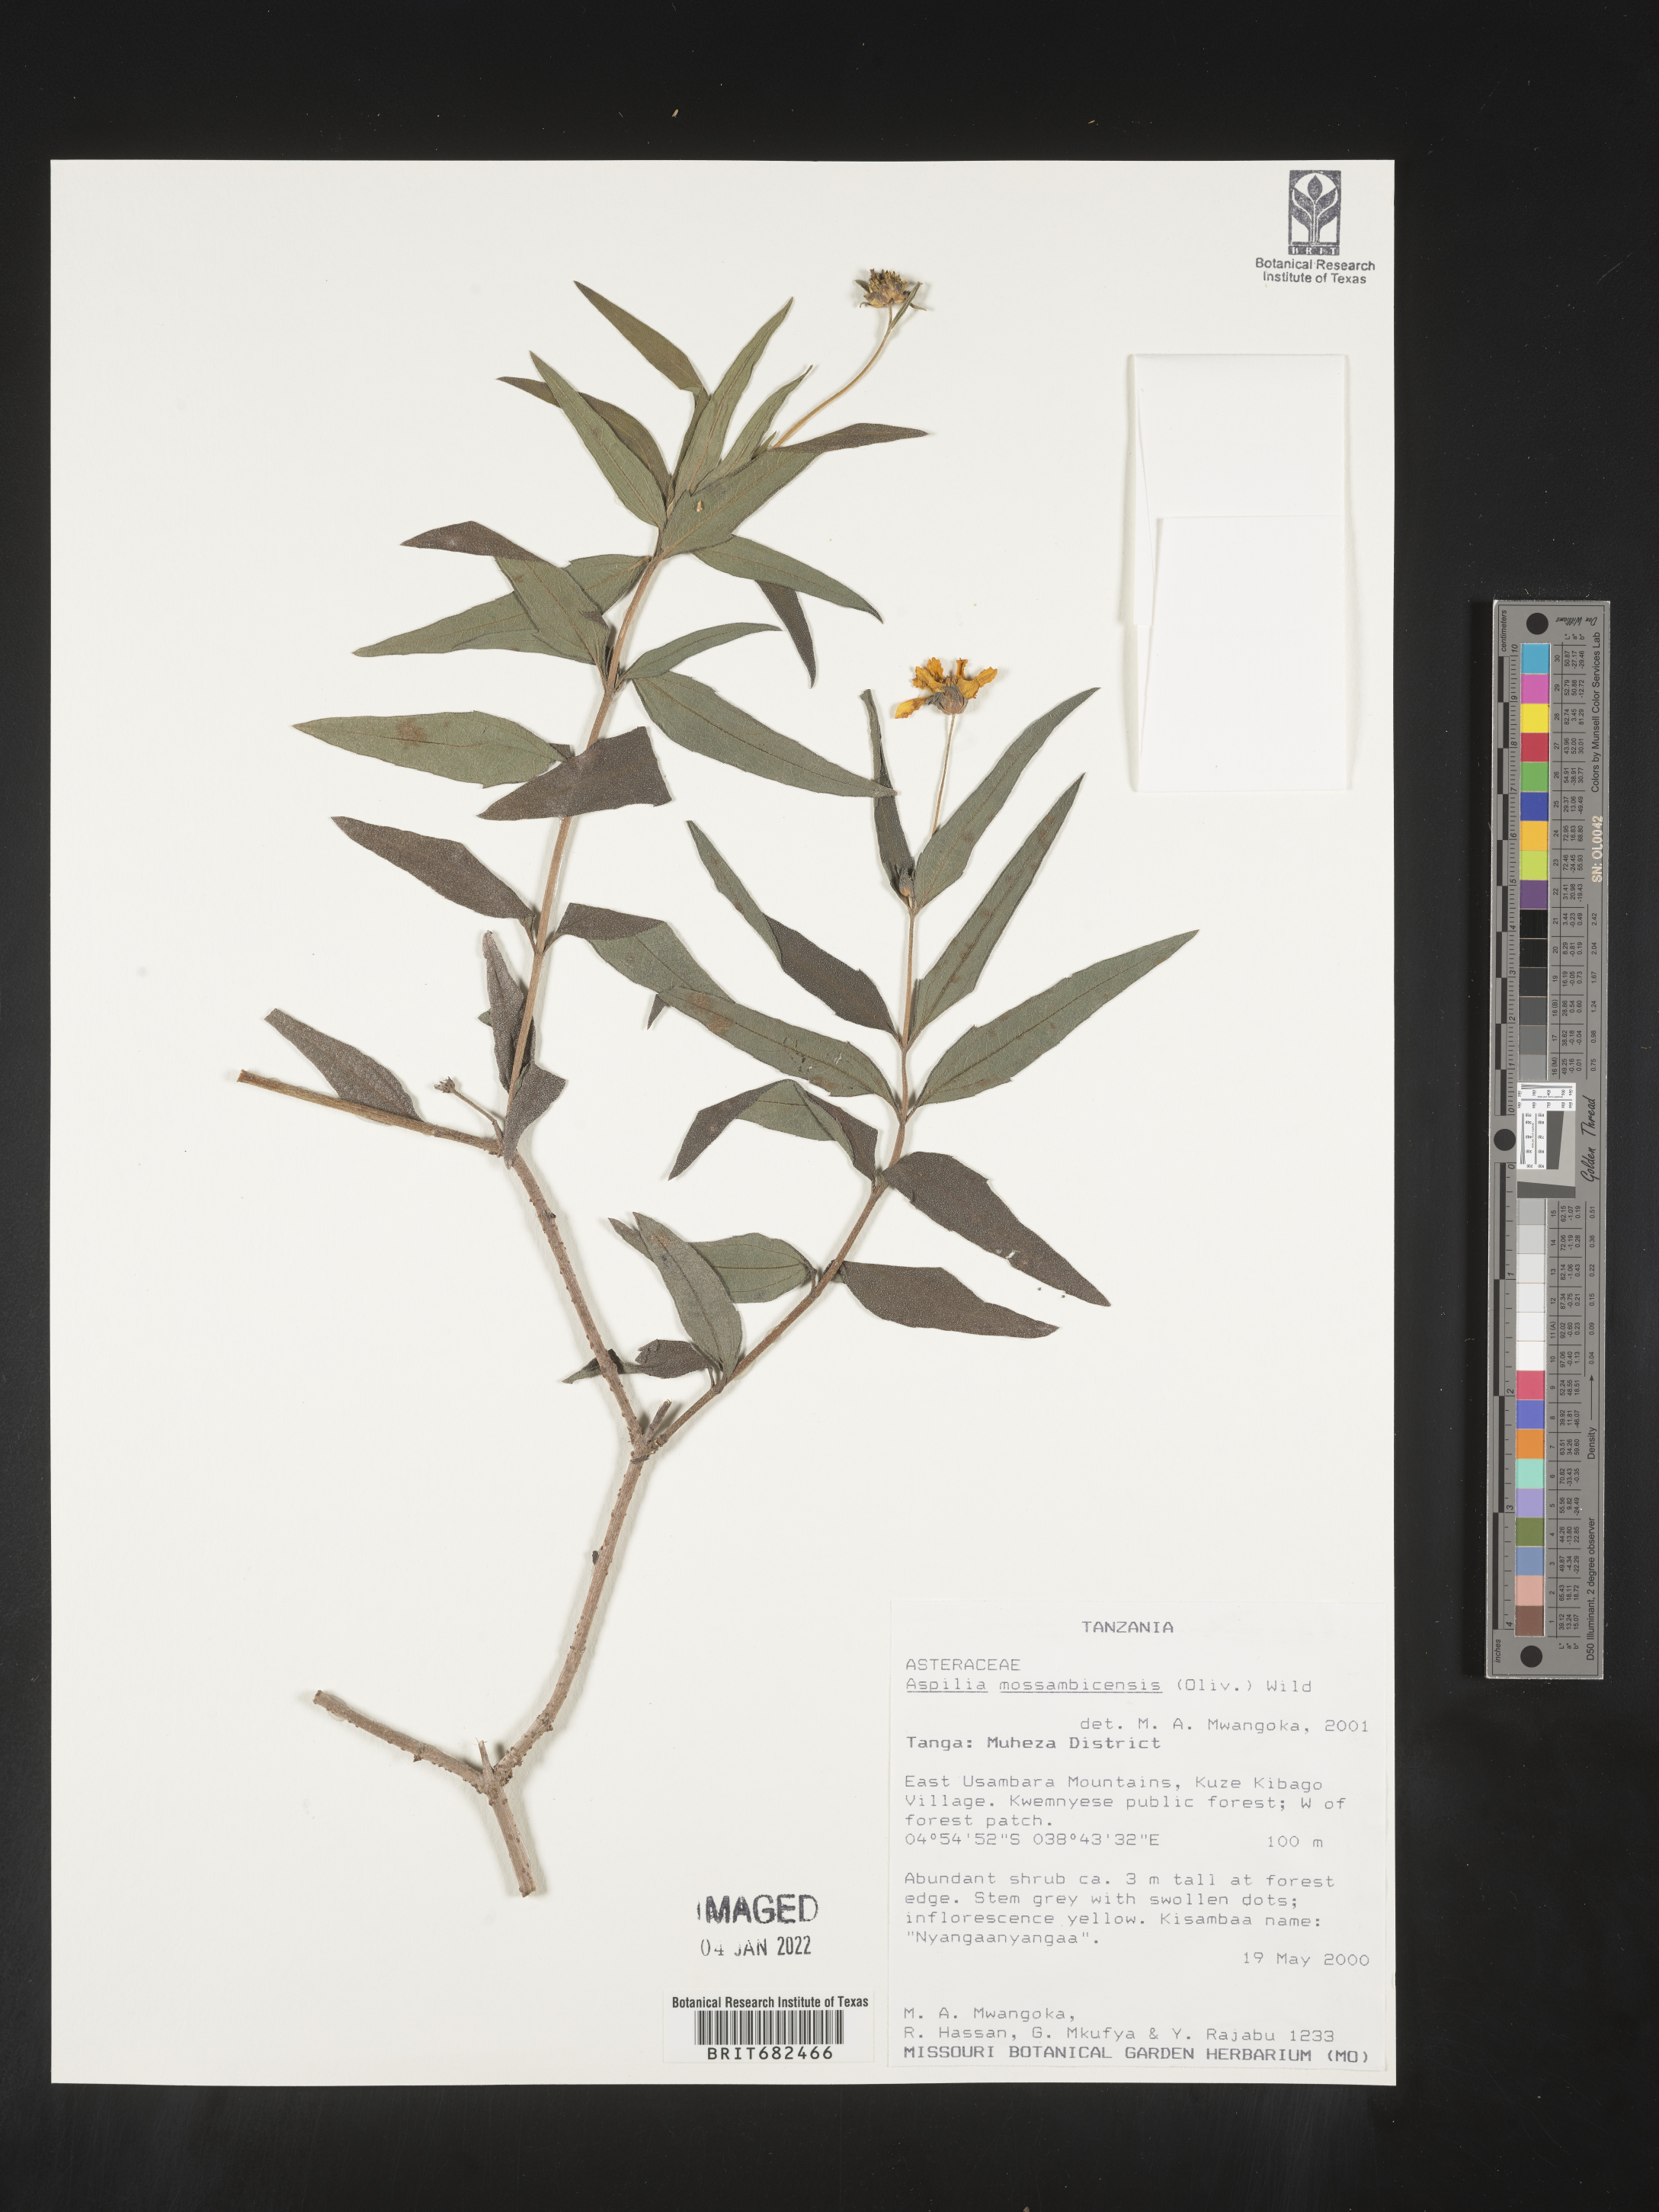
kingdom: Plantae
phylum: Tracheophyta
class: Magnoliopsida
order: Asterales
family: Asteraceae
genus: Aspilia
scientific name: Aspilia
